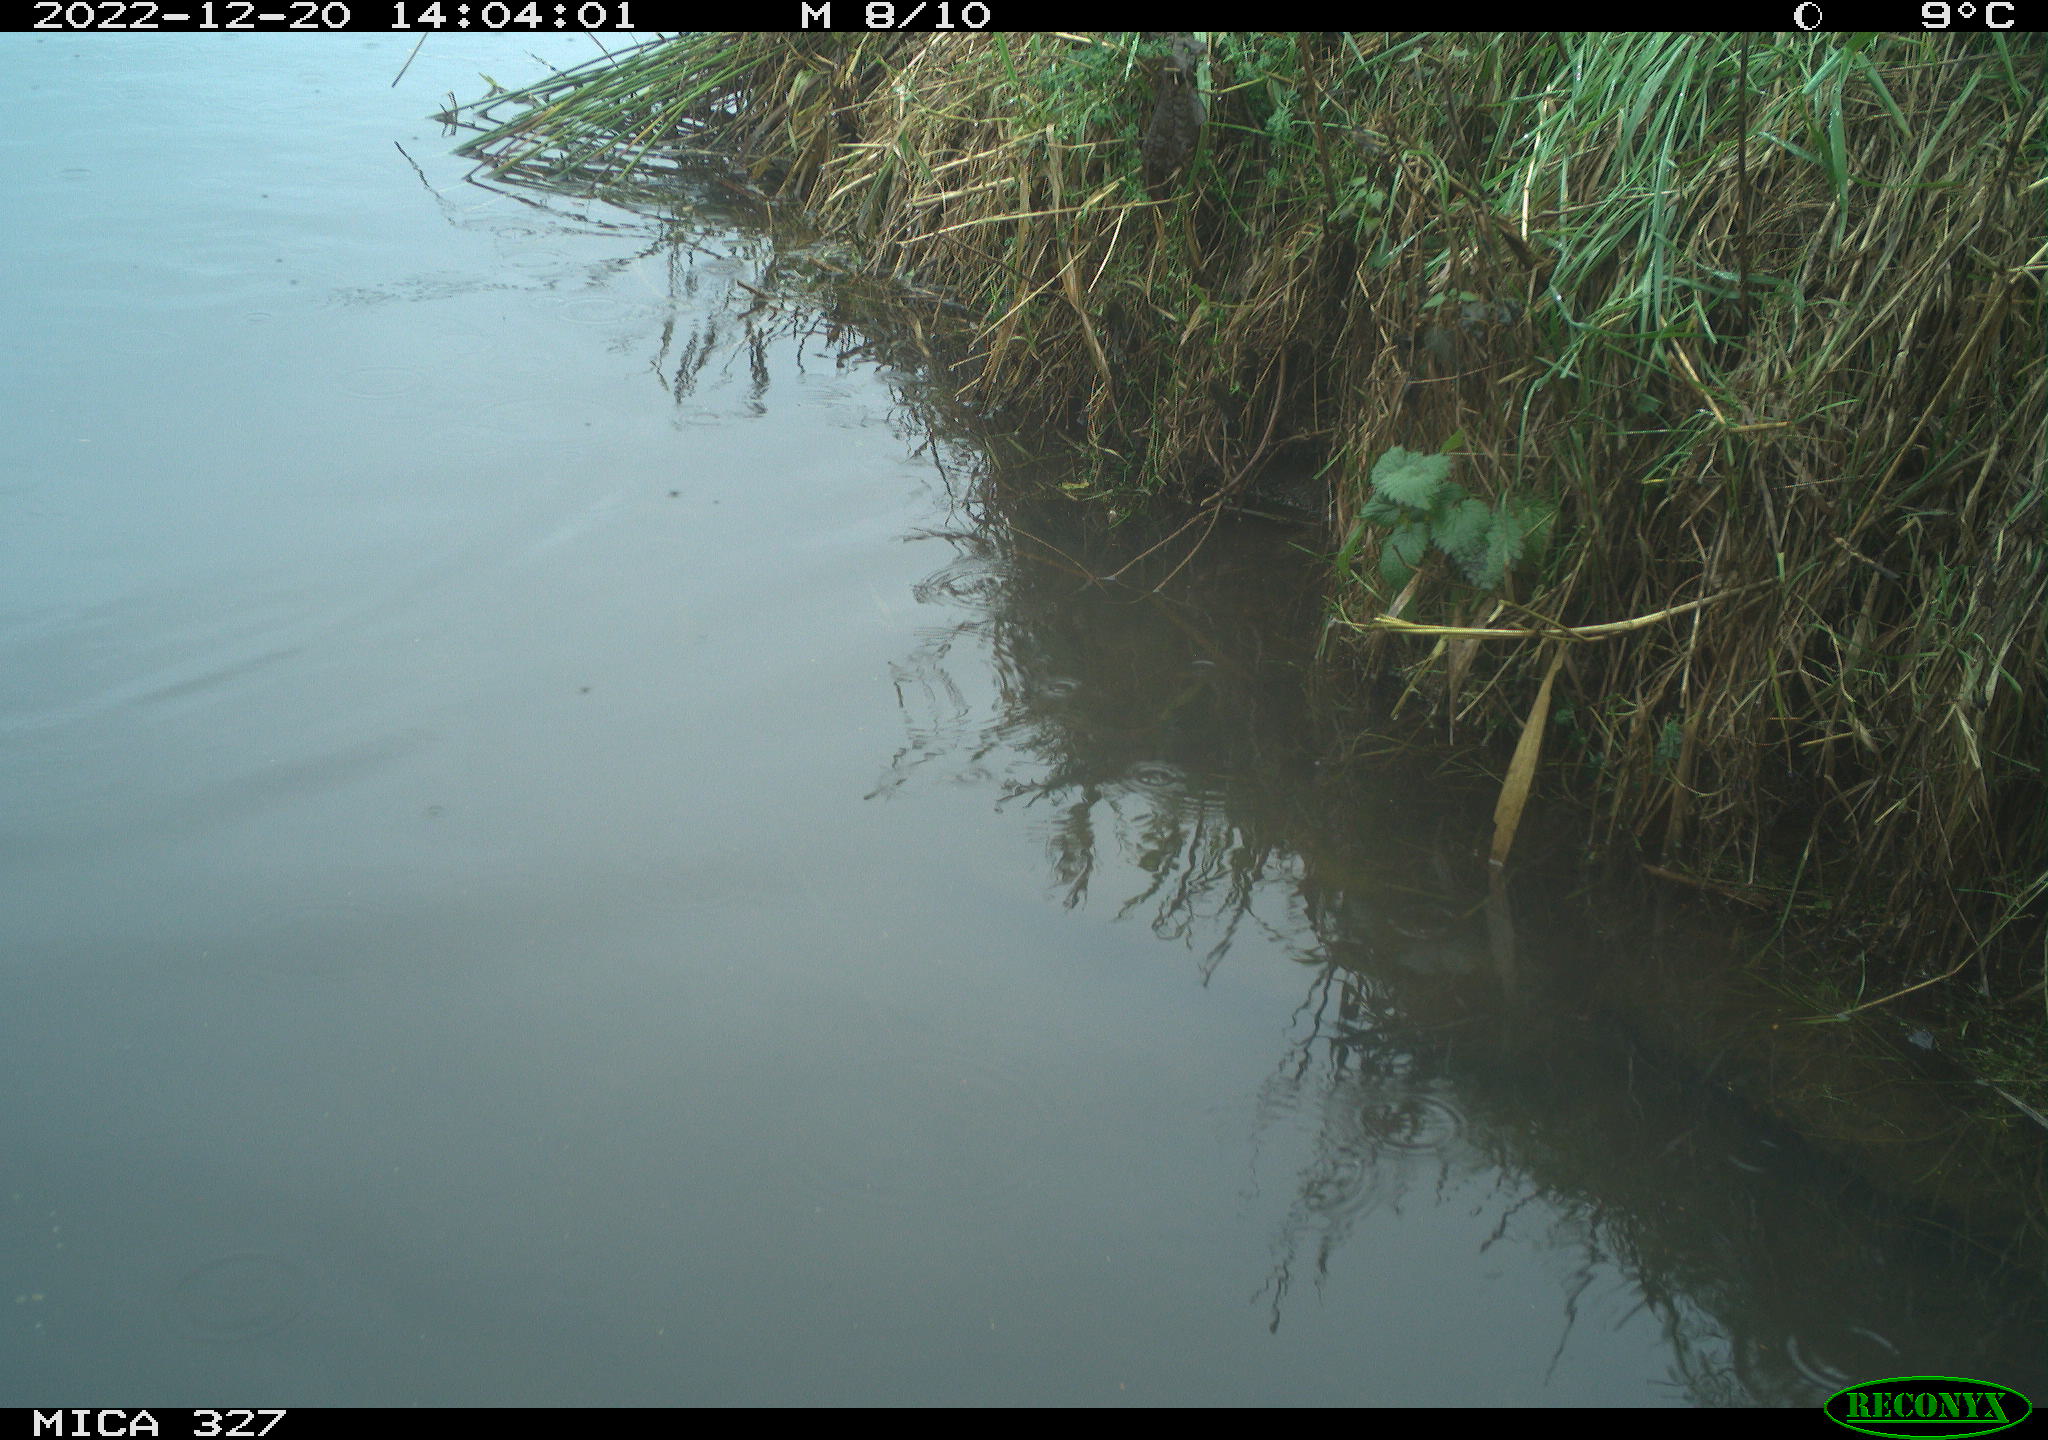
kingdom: Animalia
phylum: Chordata
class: Aves
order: Gruiformes
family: Rallidae
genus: Gallinula
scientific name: Gallinula chloropus
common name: Common moorhen
